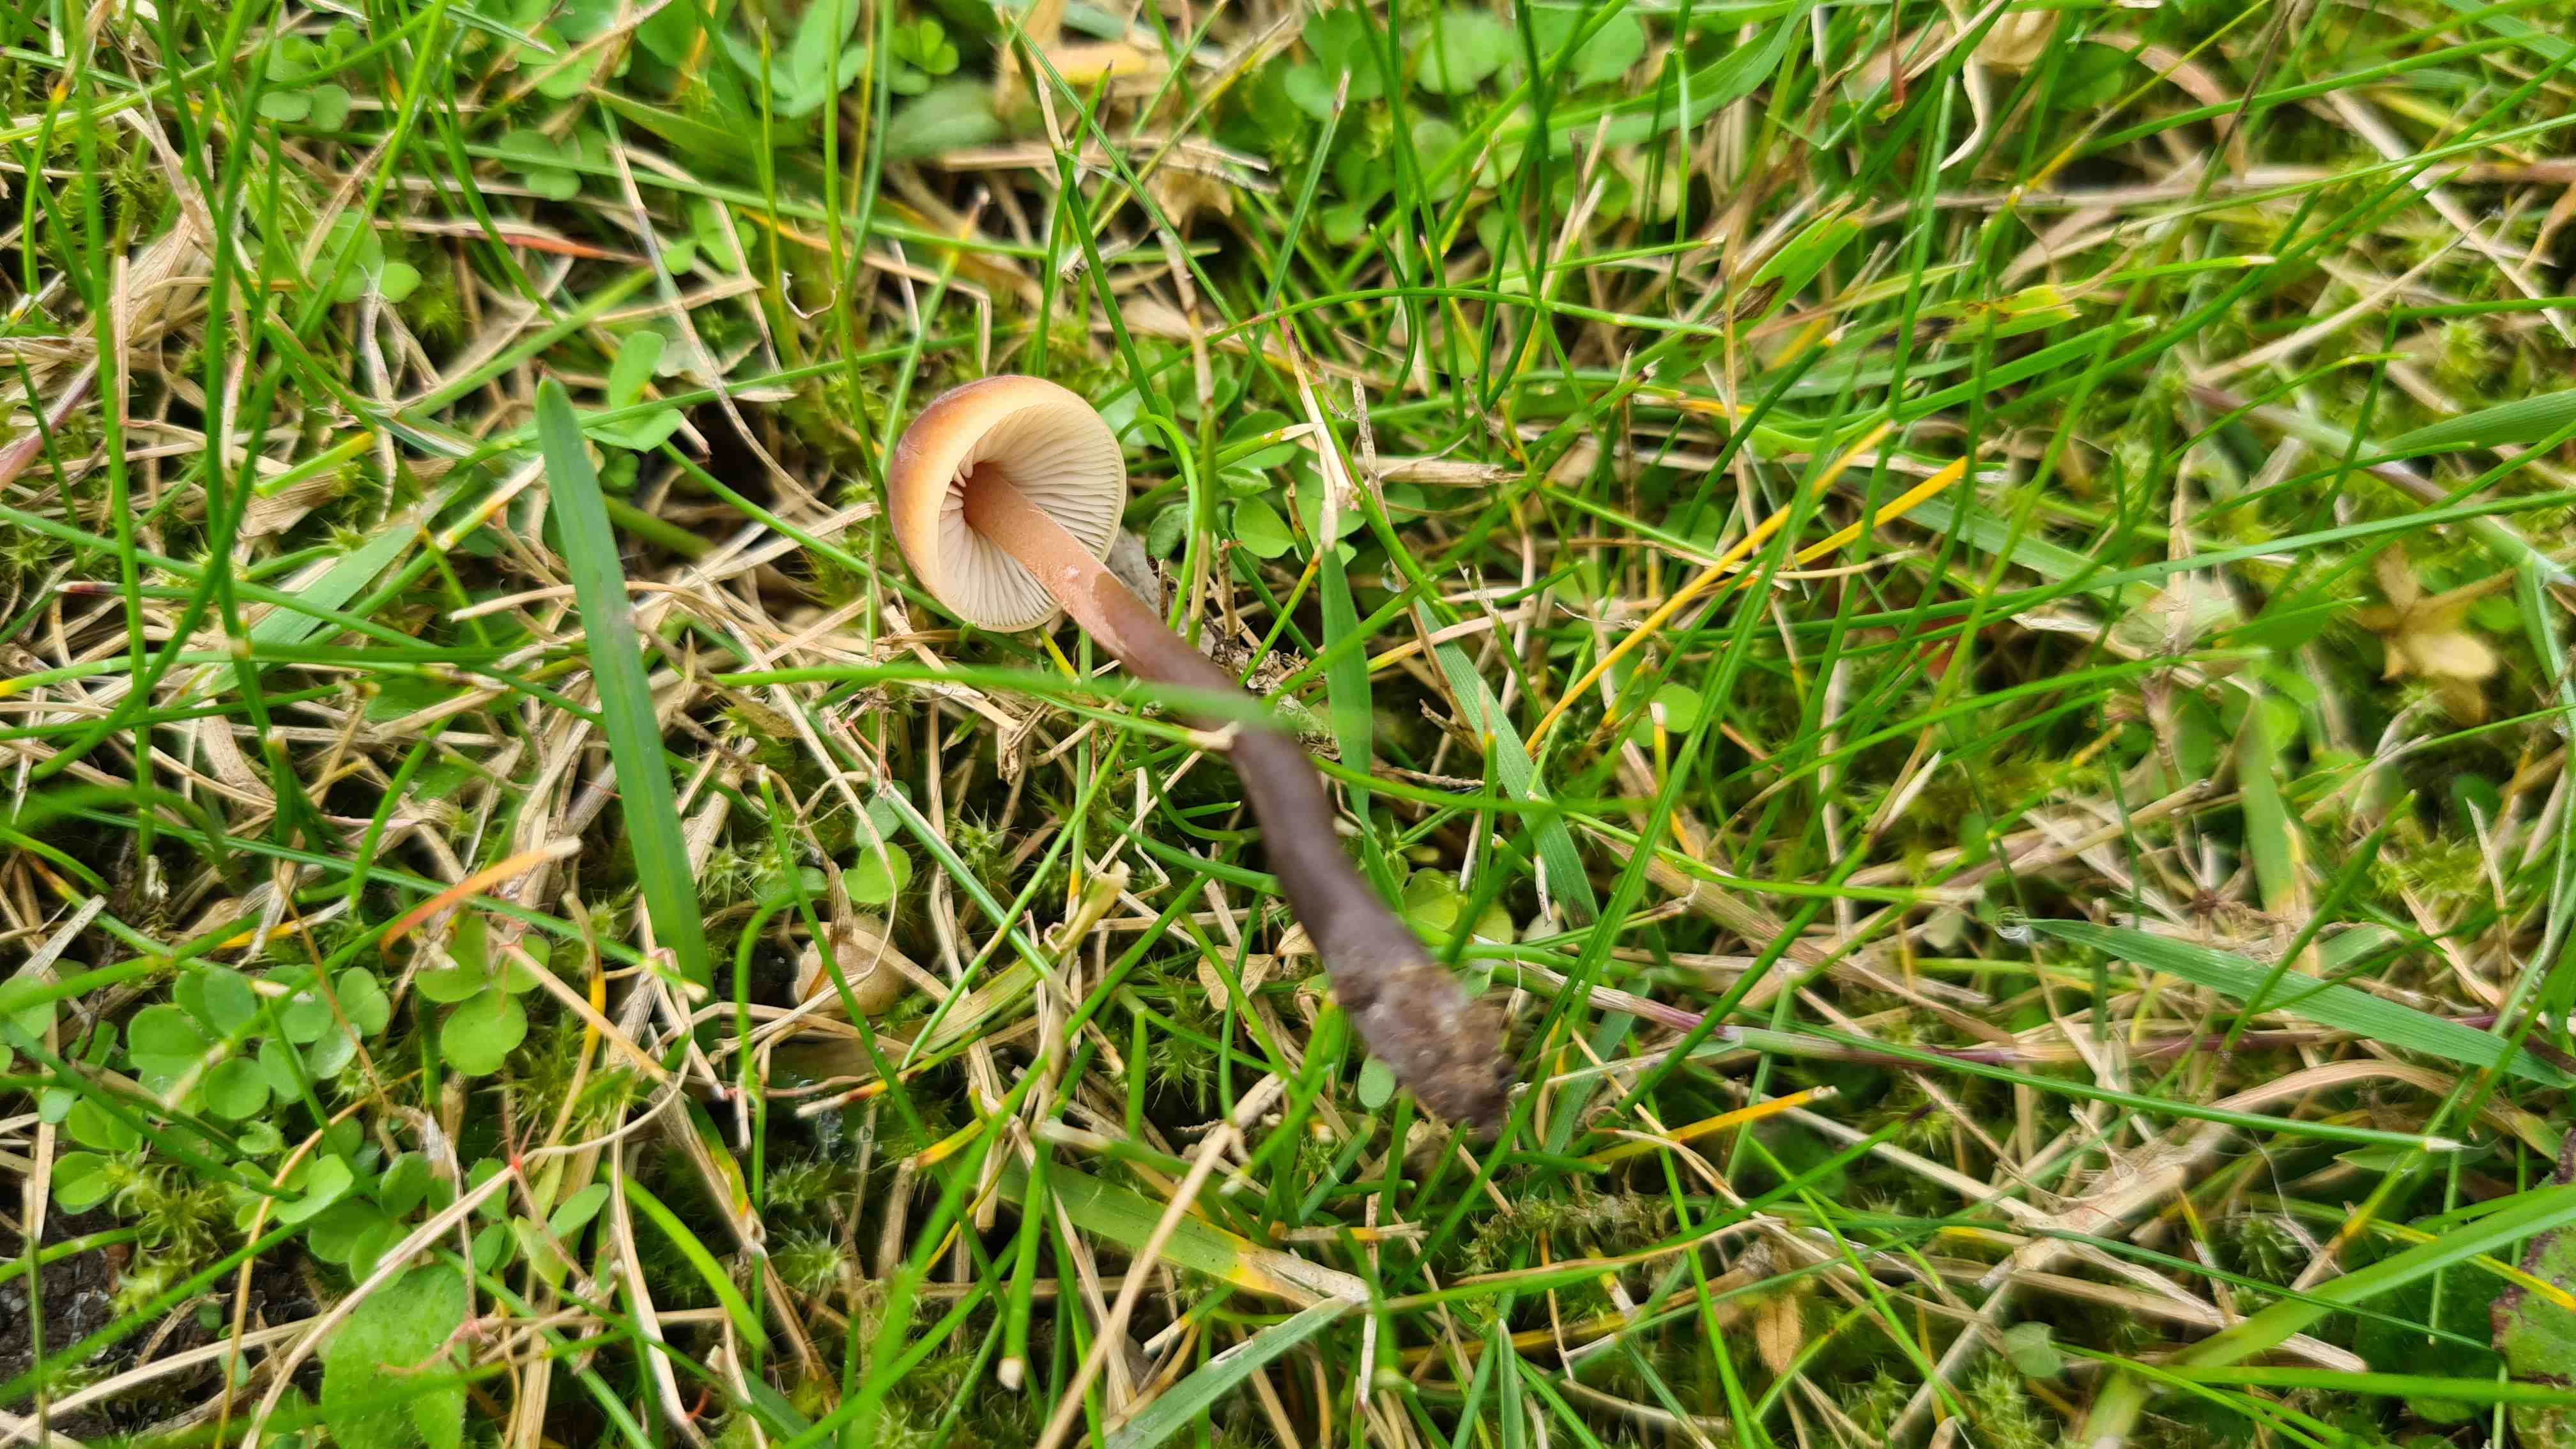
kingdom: Fungi
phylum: Basidiomycota
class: Agaricomycetes
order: Agaricales
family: Macrocystidiaceae
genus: Macrocystidia
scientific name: Macrocystidia cucumis
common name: agurkehat
